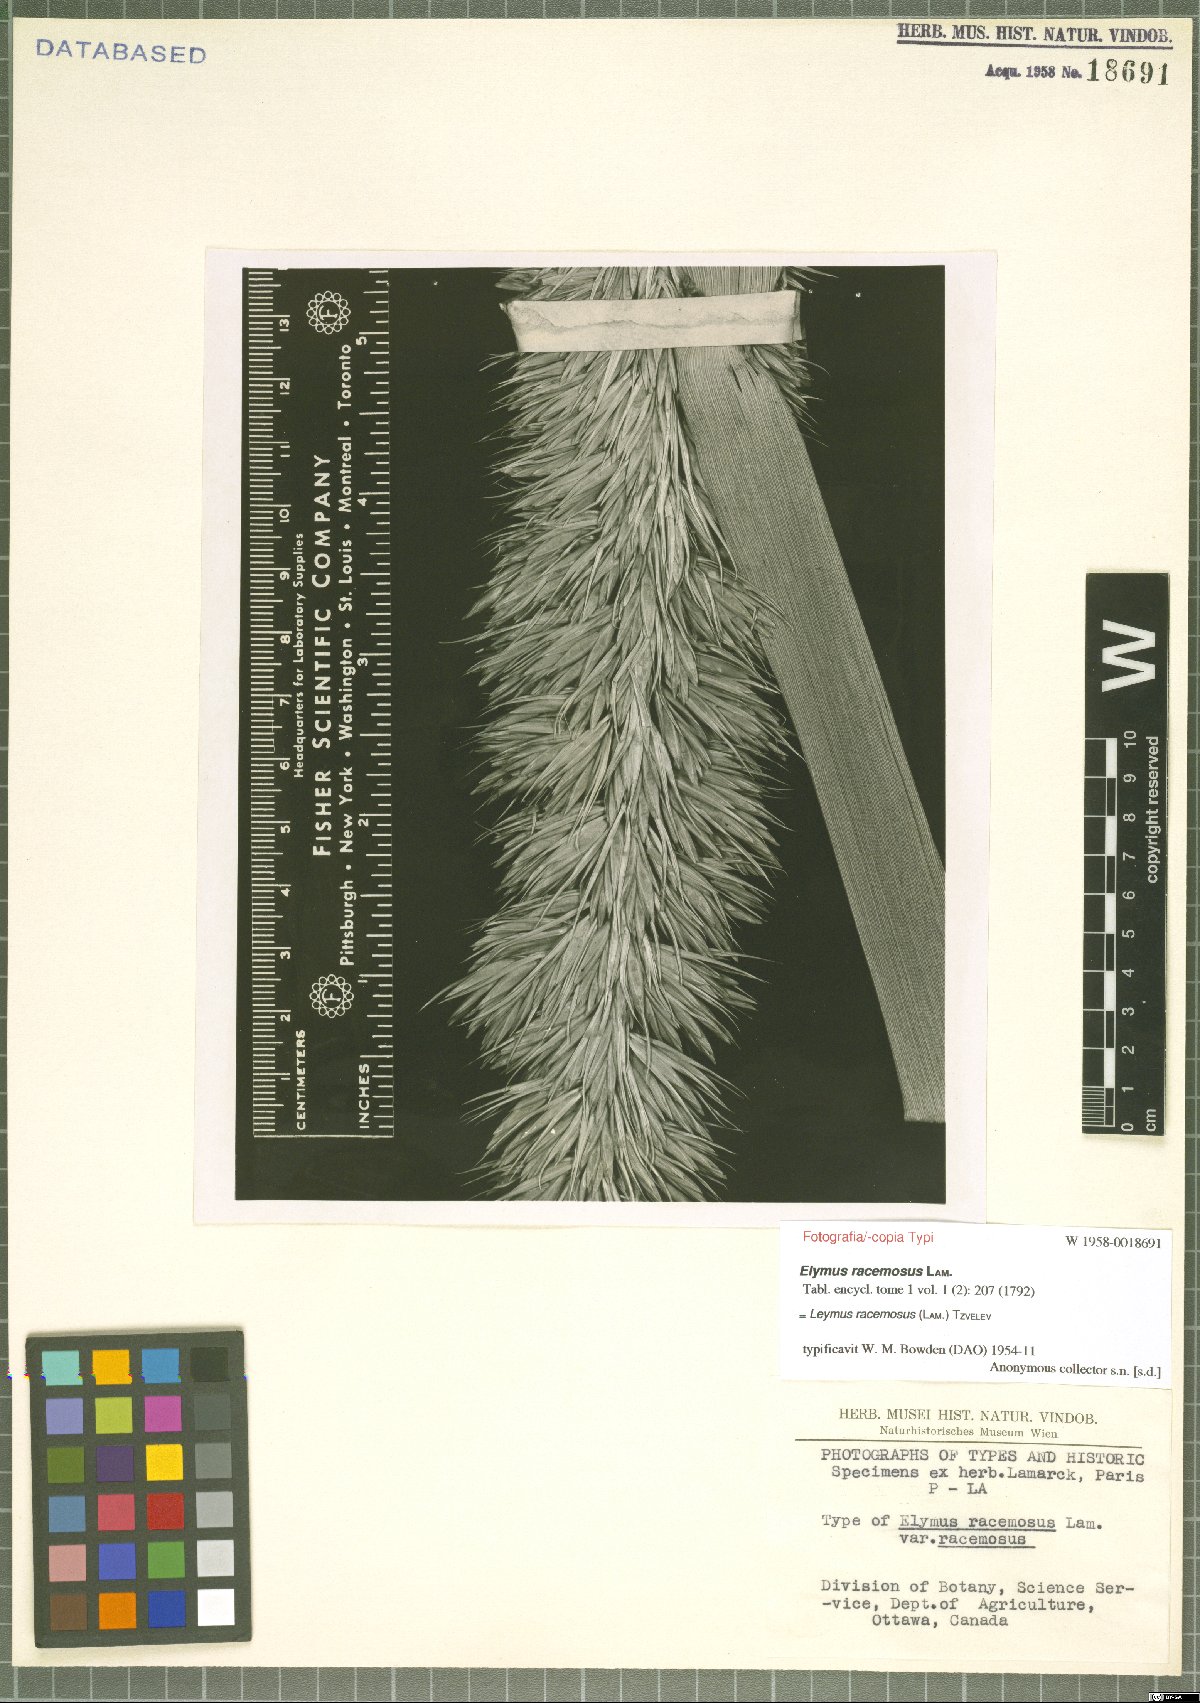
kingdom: Plantae
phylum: Tracheophyta
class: Liliopsida
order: Poales
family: Poaceae
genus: Leymus
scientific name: Leymus racemosus
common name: Mammoth wildrye
